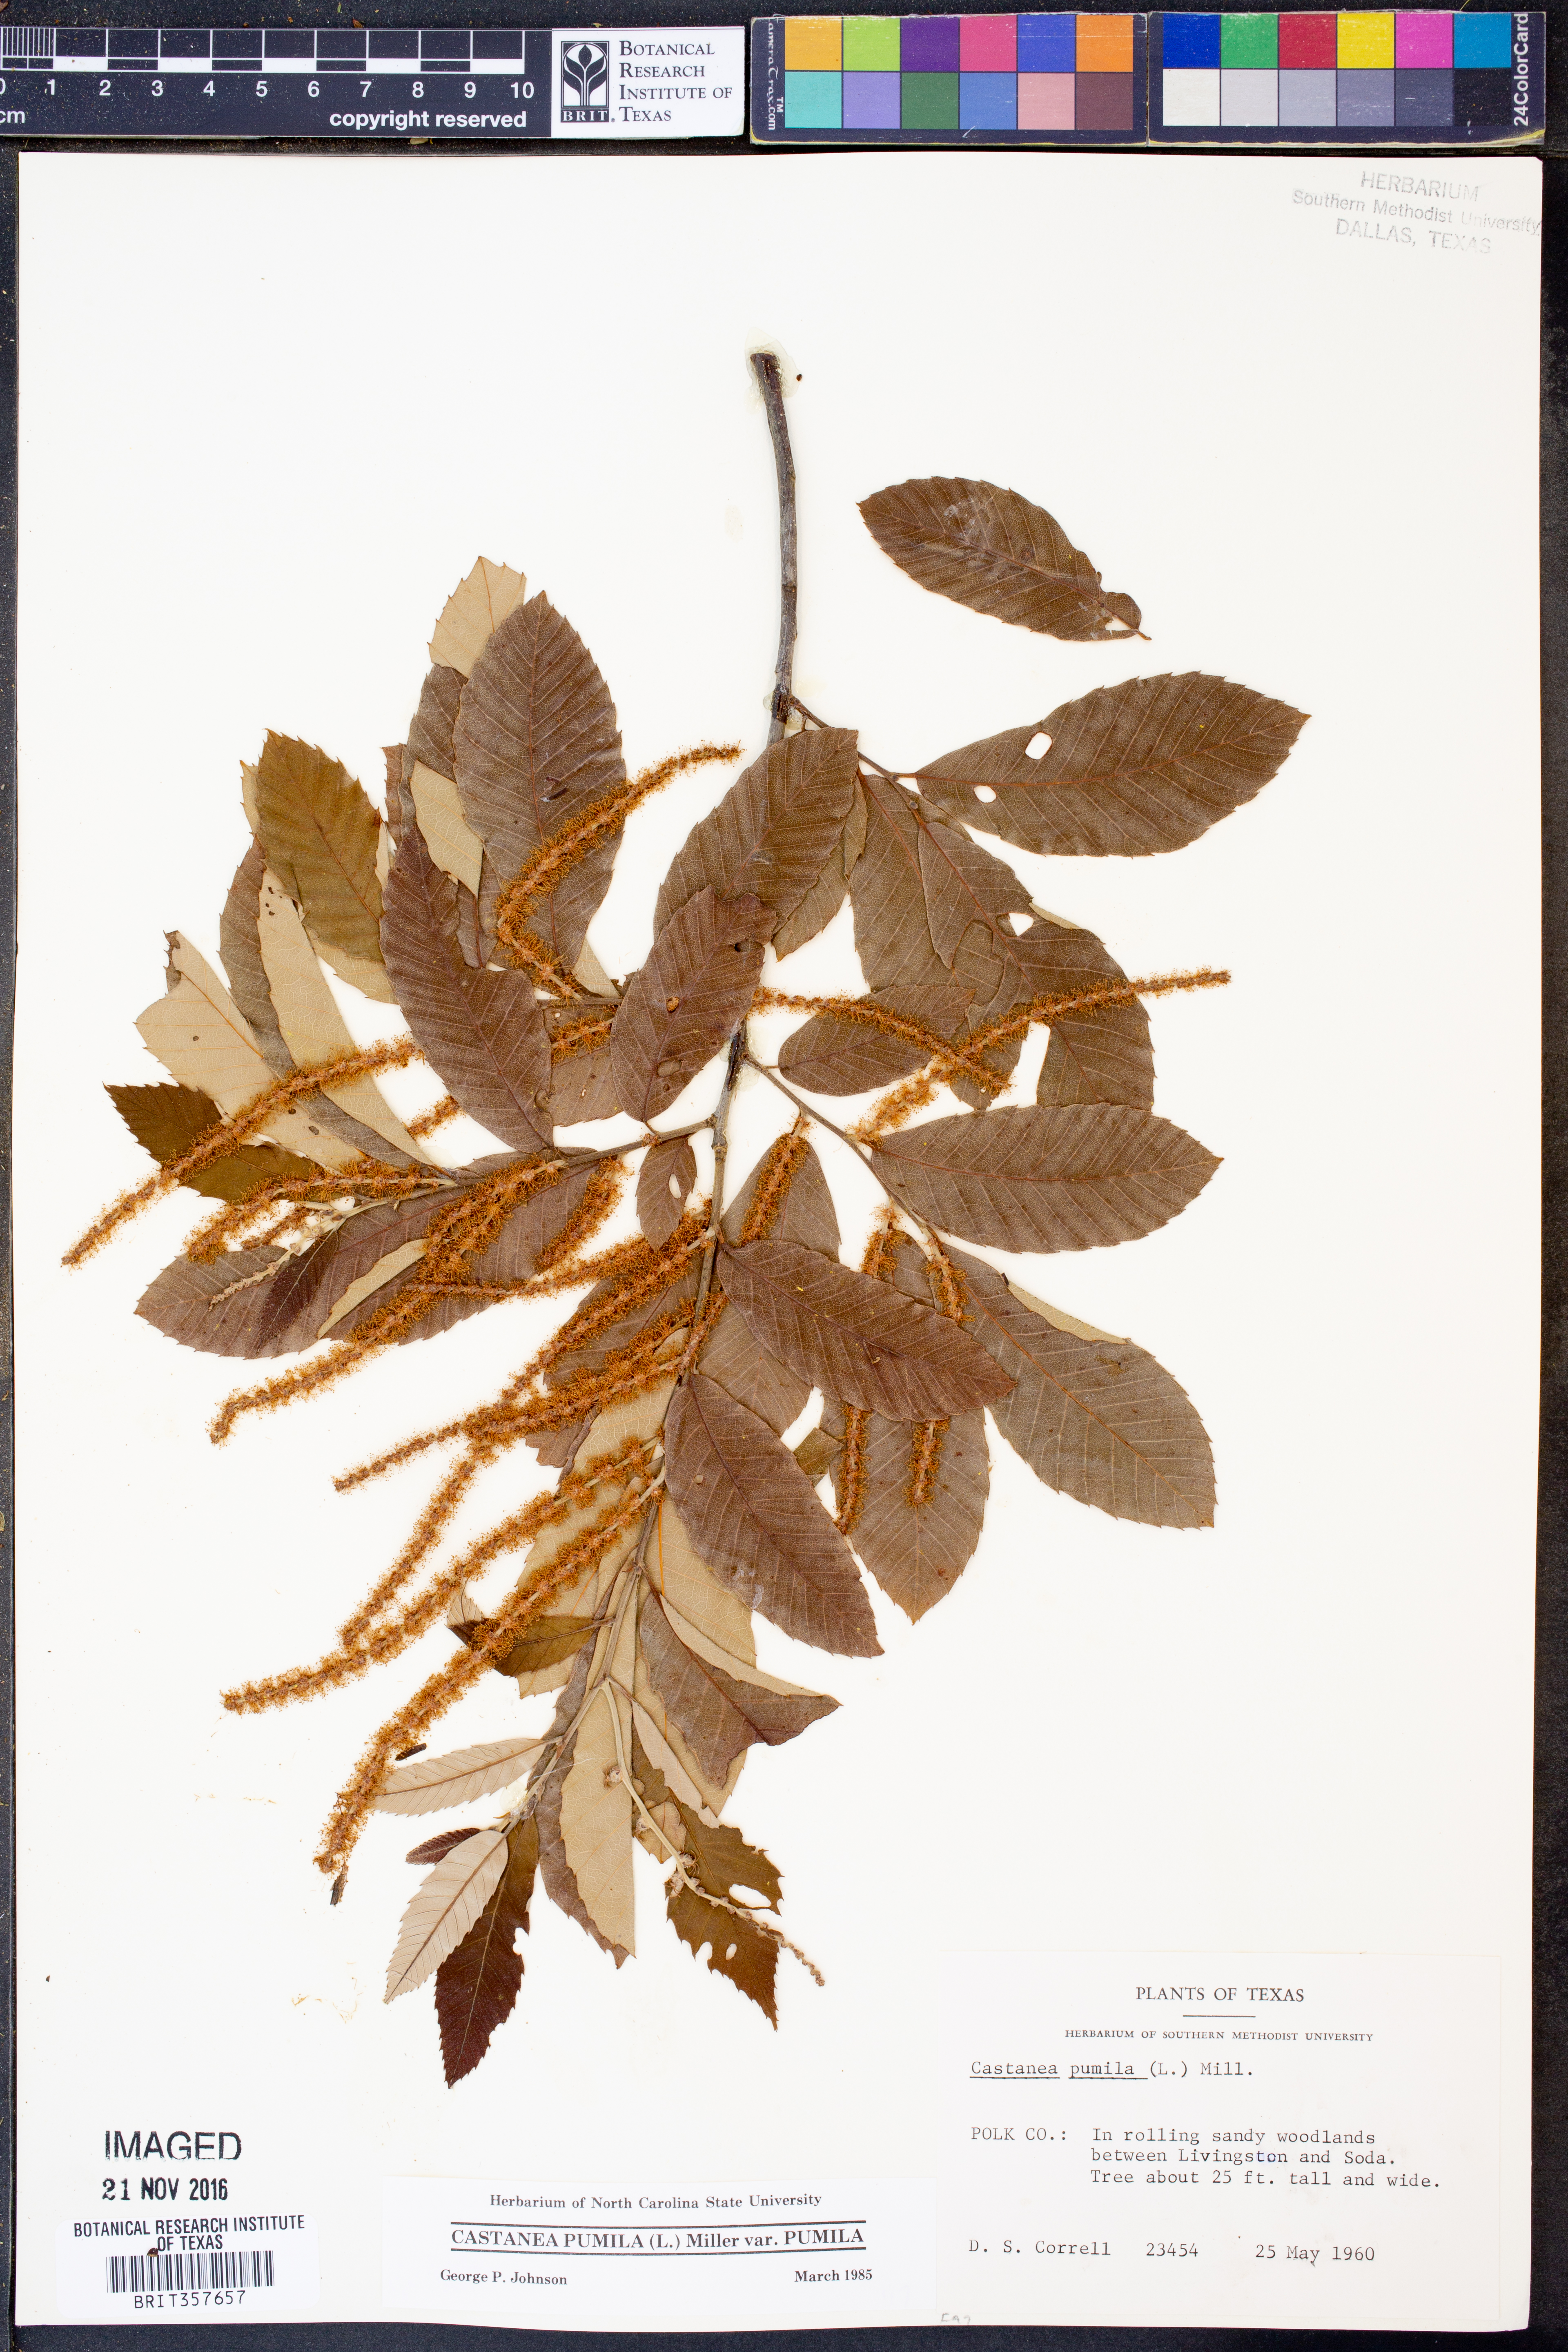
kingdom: Plantae
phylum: Tracheophyta
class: Magnoliopsida
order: Fagales
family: Fagaceae
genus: Castanea
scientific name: Castanea pumila
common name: Chinkapin
